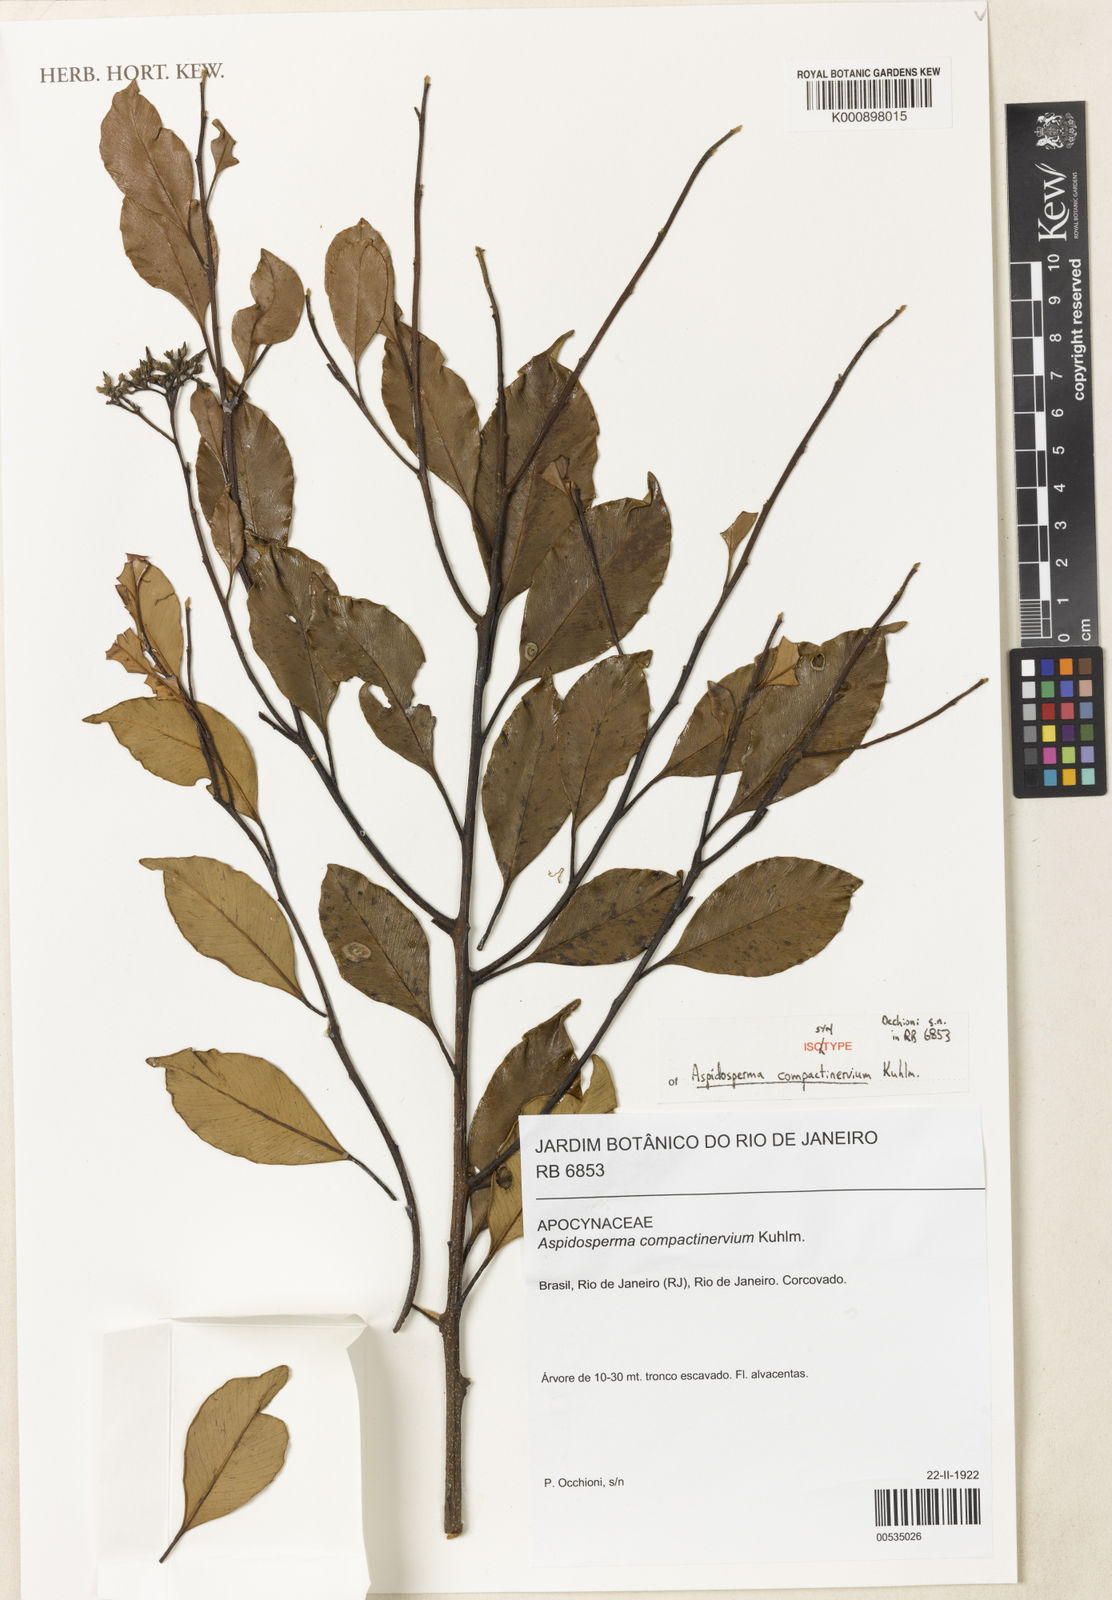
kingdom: Plantae
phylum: Tracheophyta
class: Magnoliopsida
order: Gentianales
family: Apocynaceae
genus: Aspidosperma
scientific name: Aspidosperma eburneum
